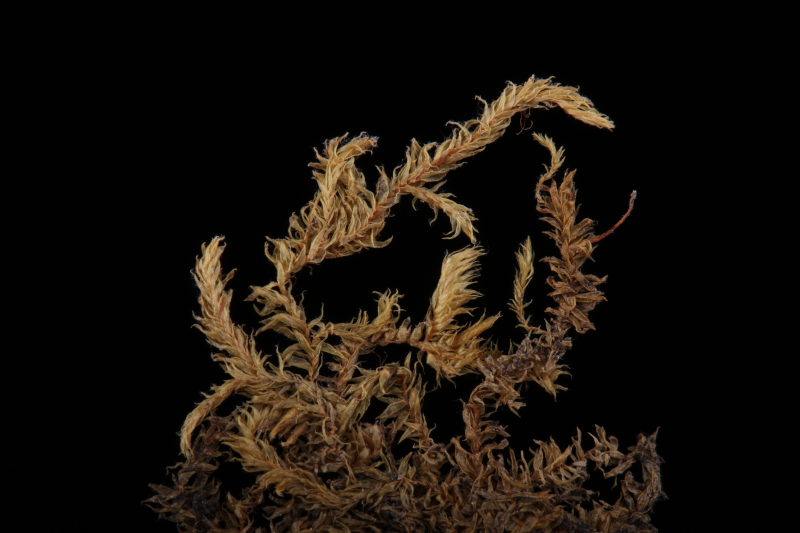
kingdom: Plantae
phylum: Bryophyta
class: Bryopsida
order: Hypnales
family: Sematophyllaceae
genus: Meiothecium
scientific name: Meiothecium microcarpum
